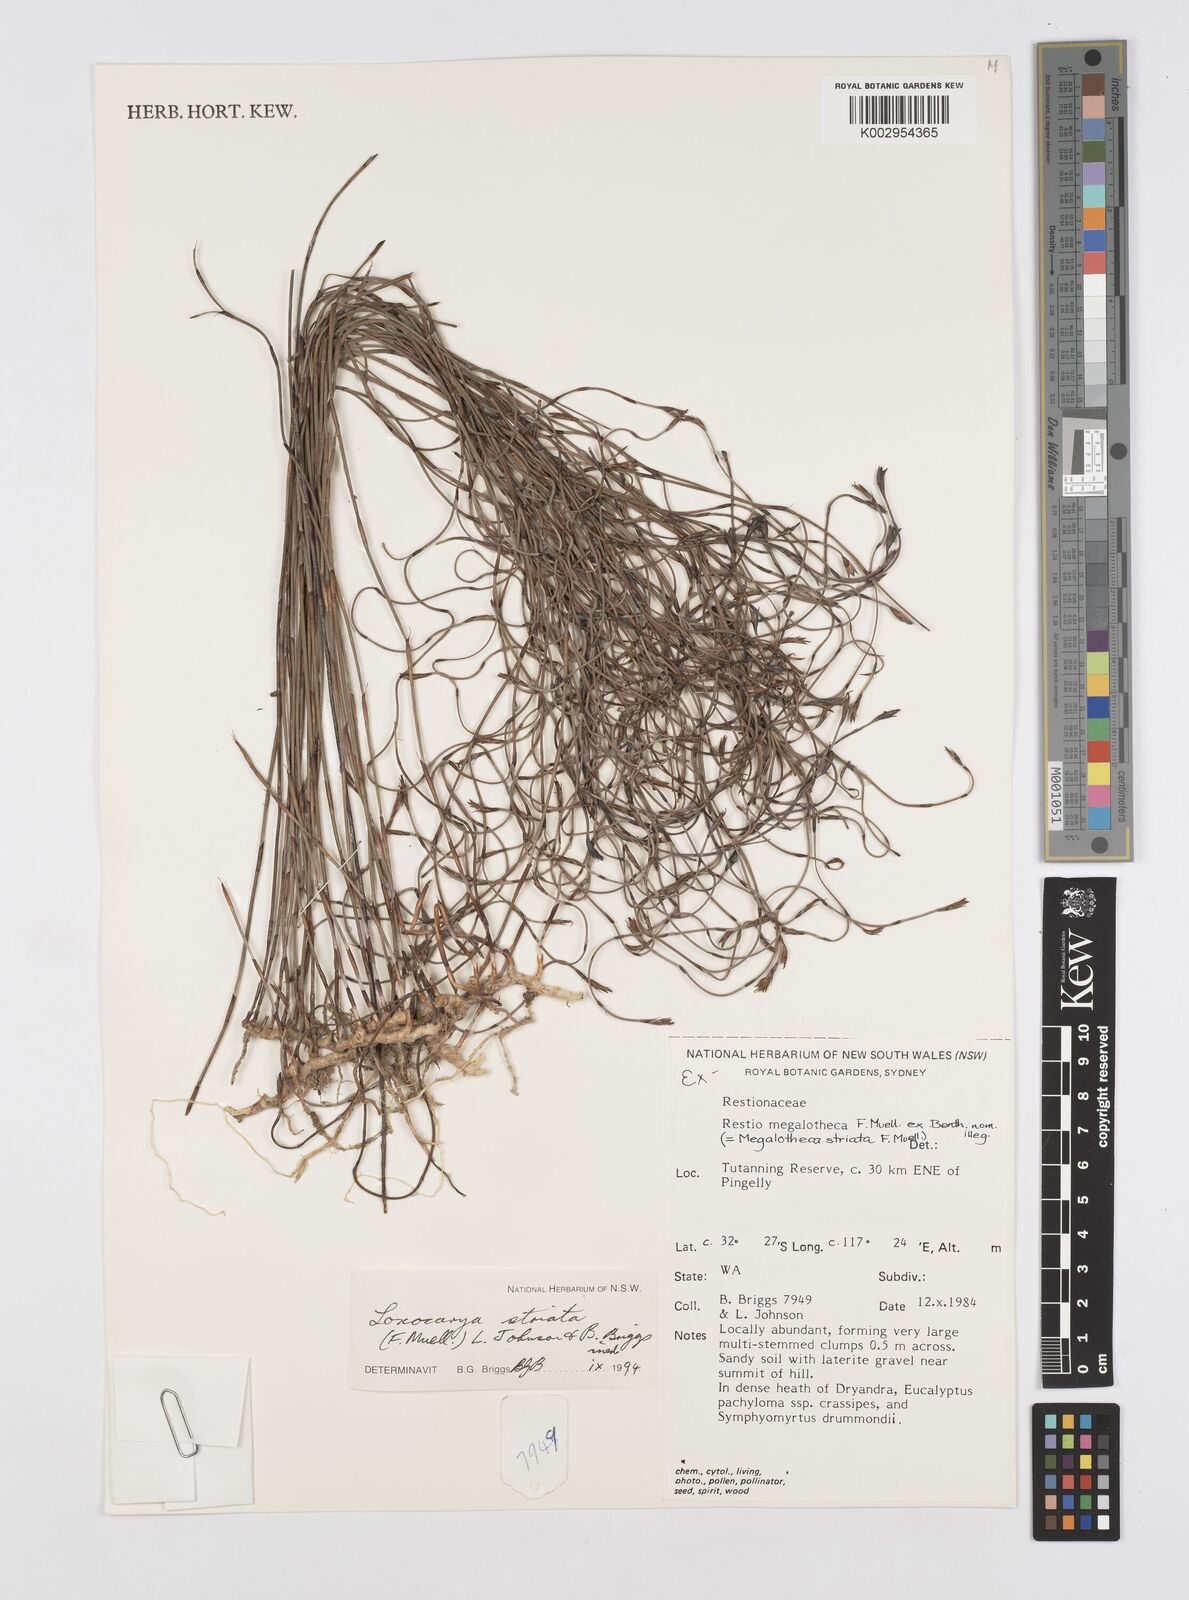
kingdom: Plantae
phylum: Tracheophyta
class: Liliopsida
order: Poales
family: Restionaceae
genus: Loxocarya
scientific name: Loxocarya striata
